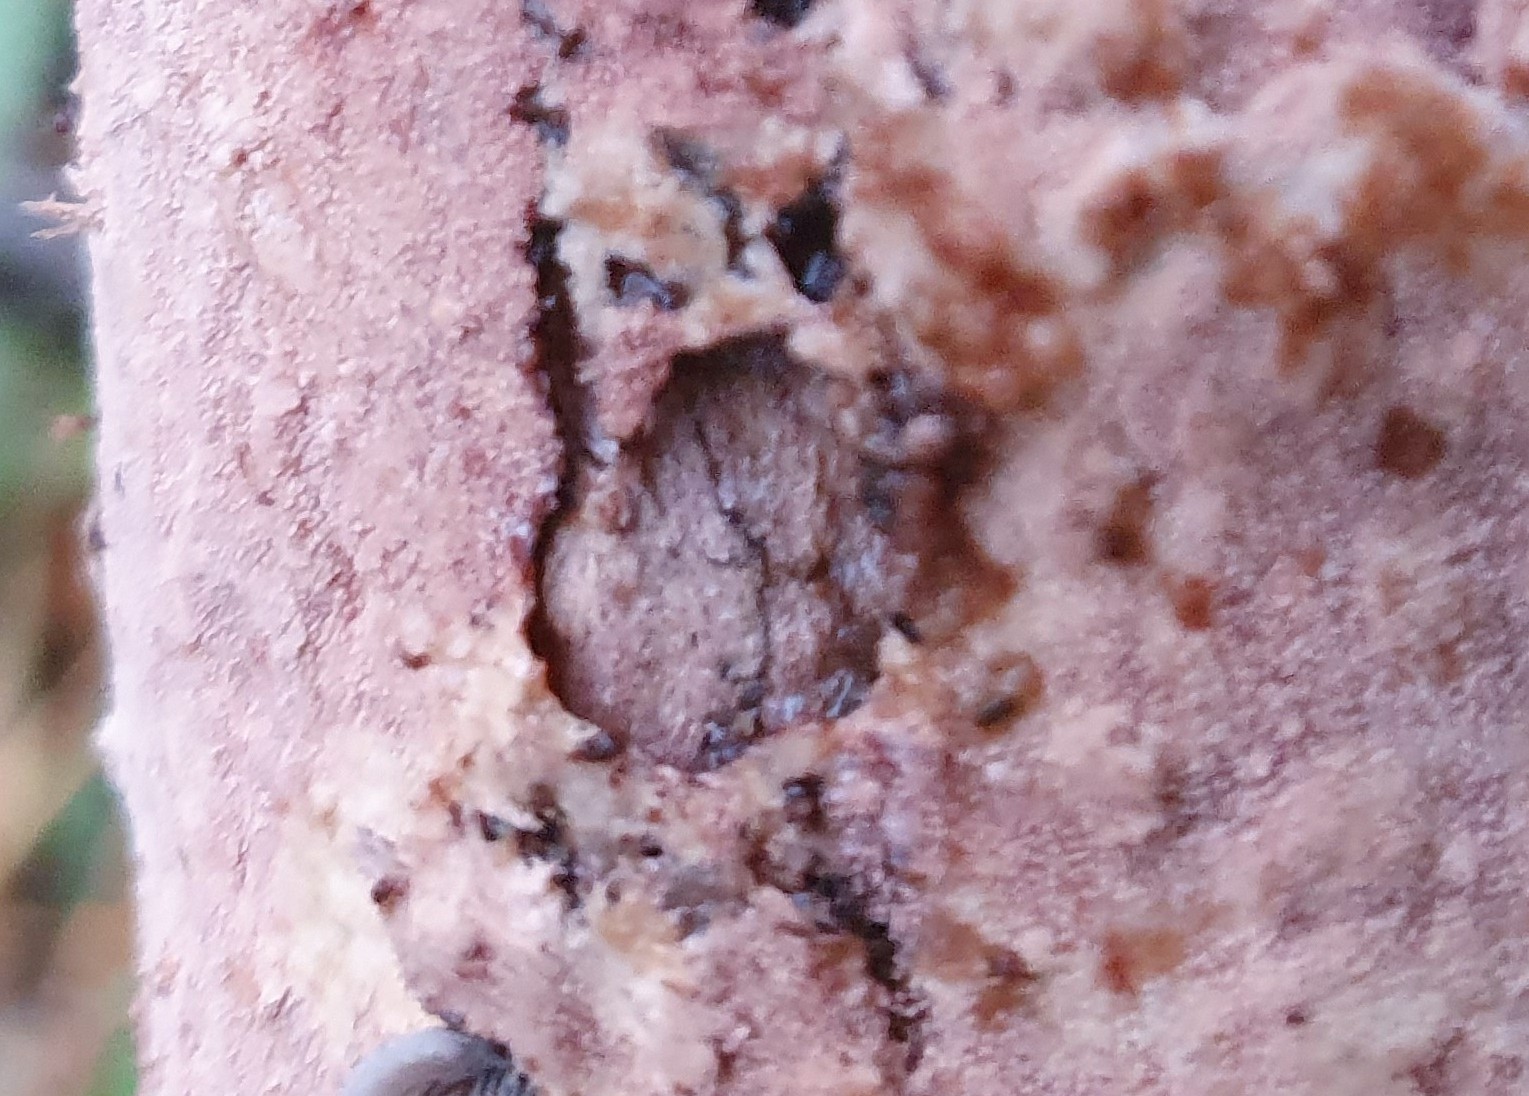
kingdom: Fungi
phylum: Basidiomycota
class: Agaricomycetes
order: Polyporales
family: Steccherinaceae
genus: Steccherinum
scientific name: Steccherinum fimbriatum
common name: trådet skønpig
